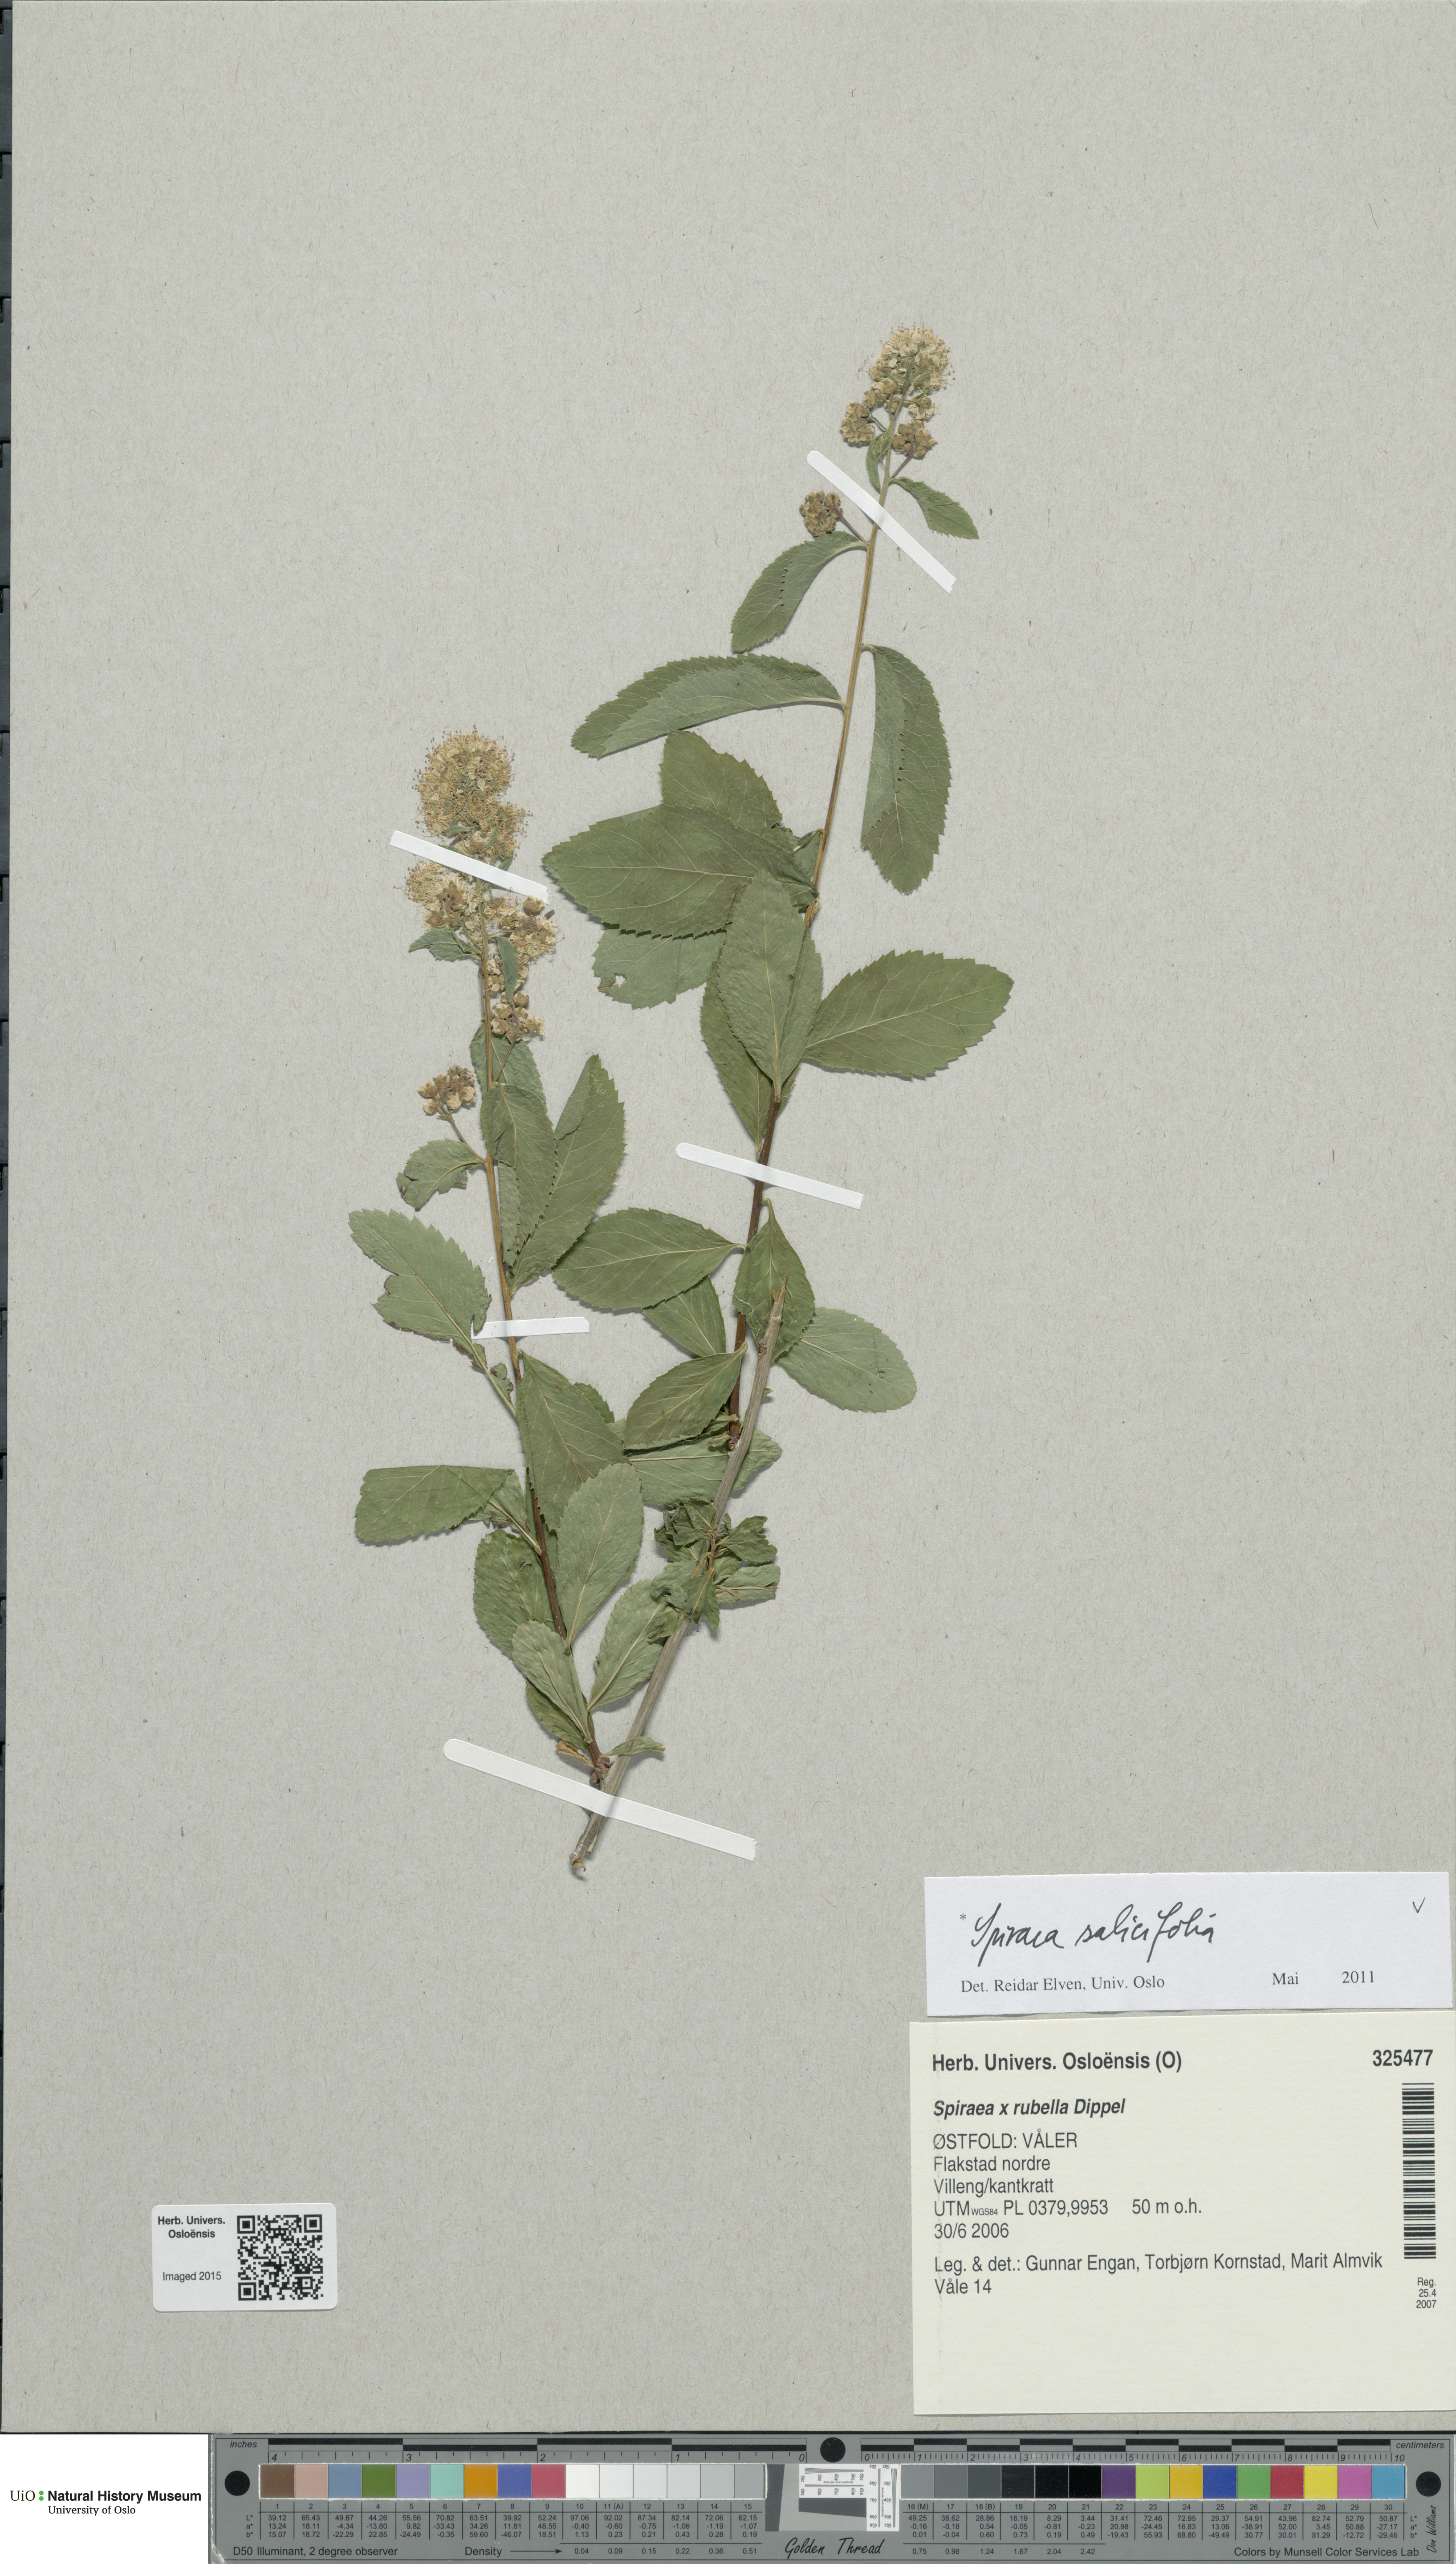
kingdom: Plantae
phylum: Tracheophyta
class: Magnoliopsida
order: Rosales
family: Rosaceae
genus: Spiraea
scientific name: Spiraea salicifolia
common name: Bridewort
